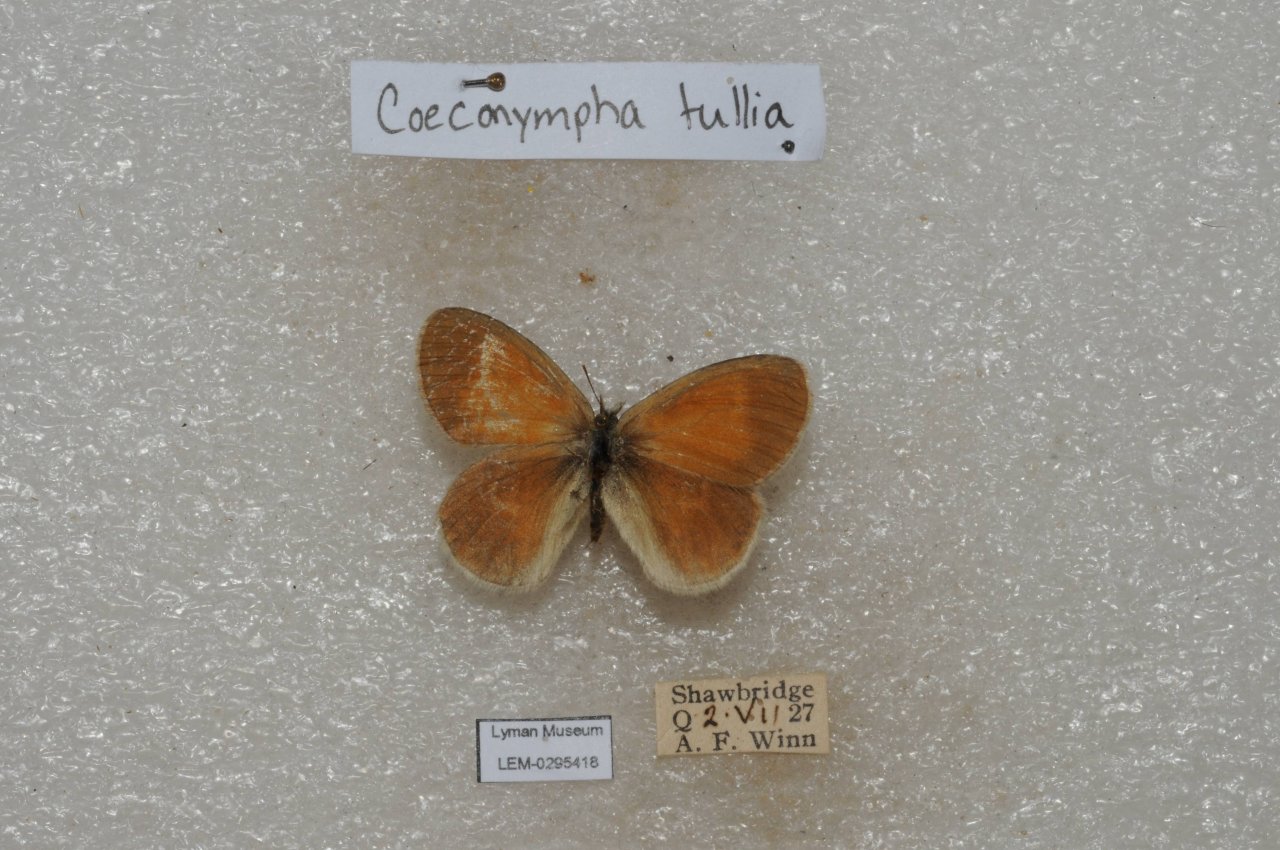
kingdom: Animalia
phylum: Arthropoda
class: Insecta
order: Lepidoptera
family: Nymphalidae
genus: Coenonympha
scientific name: Coenonympha tullia
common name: Large Heath
